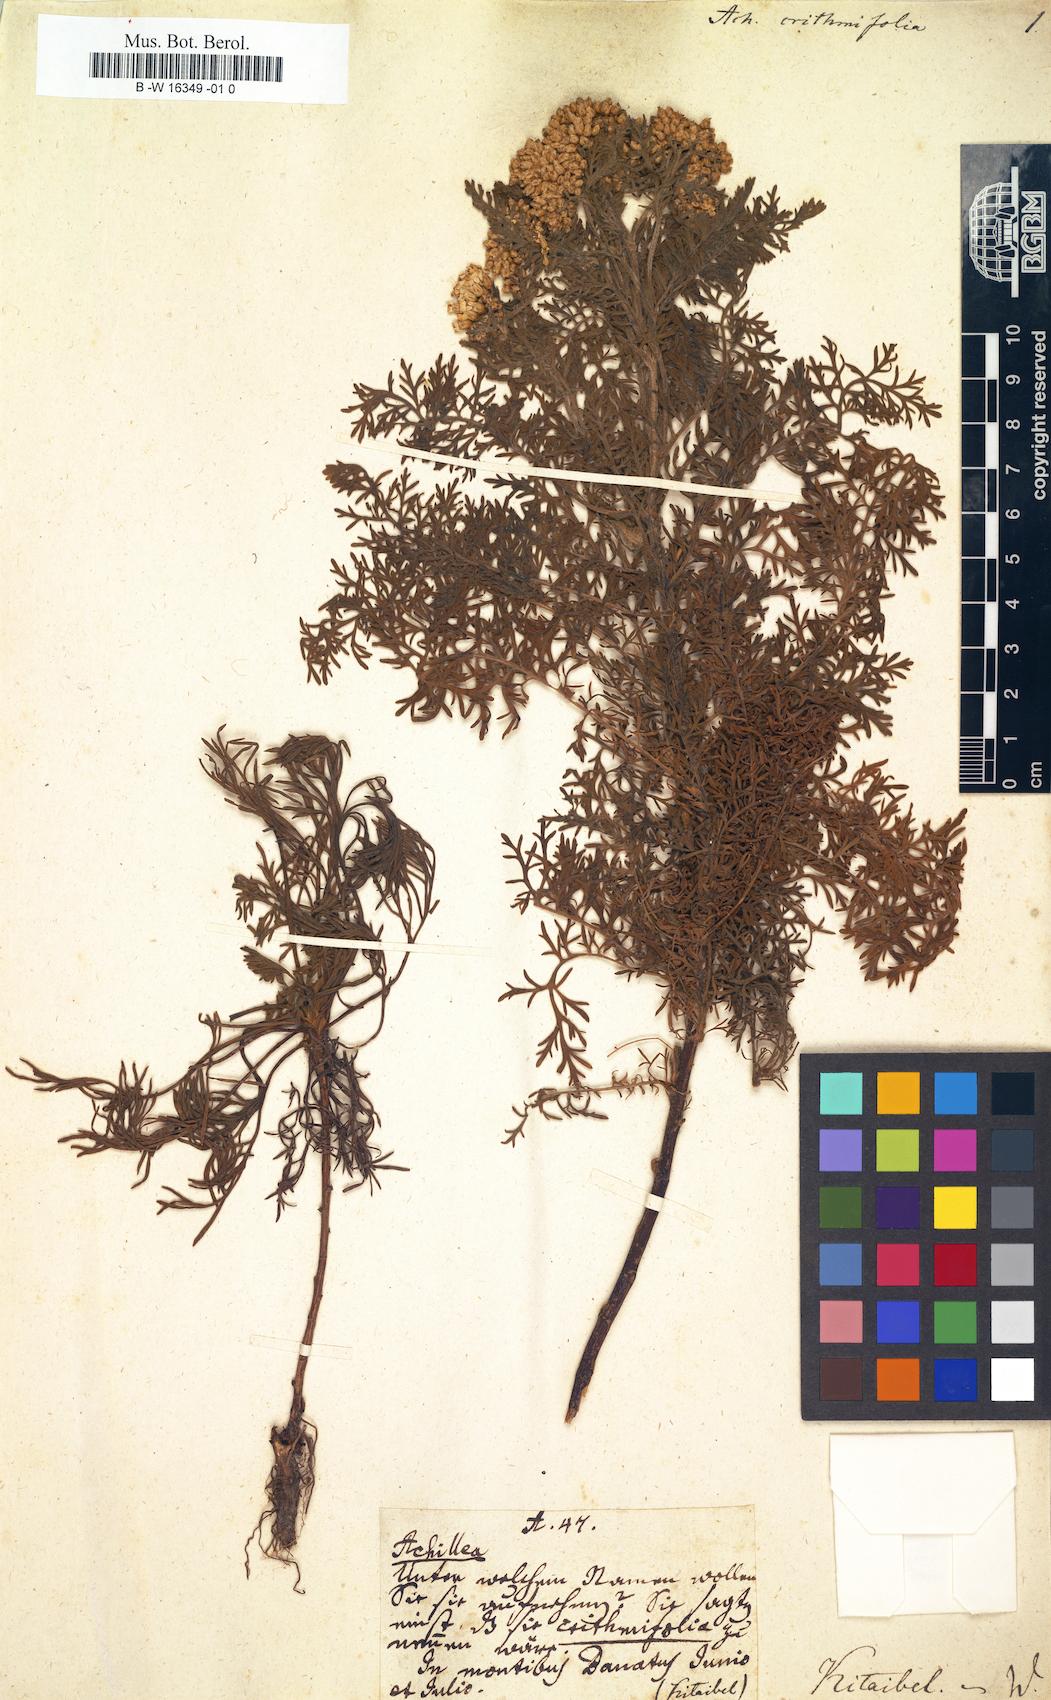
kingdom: Plantae
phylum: Tracheophyta
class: Magnoliopsida
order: Asterales
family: Asteraceae
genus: Achillea
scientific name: Achillea crithmifolia
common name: Yarrow
